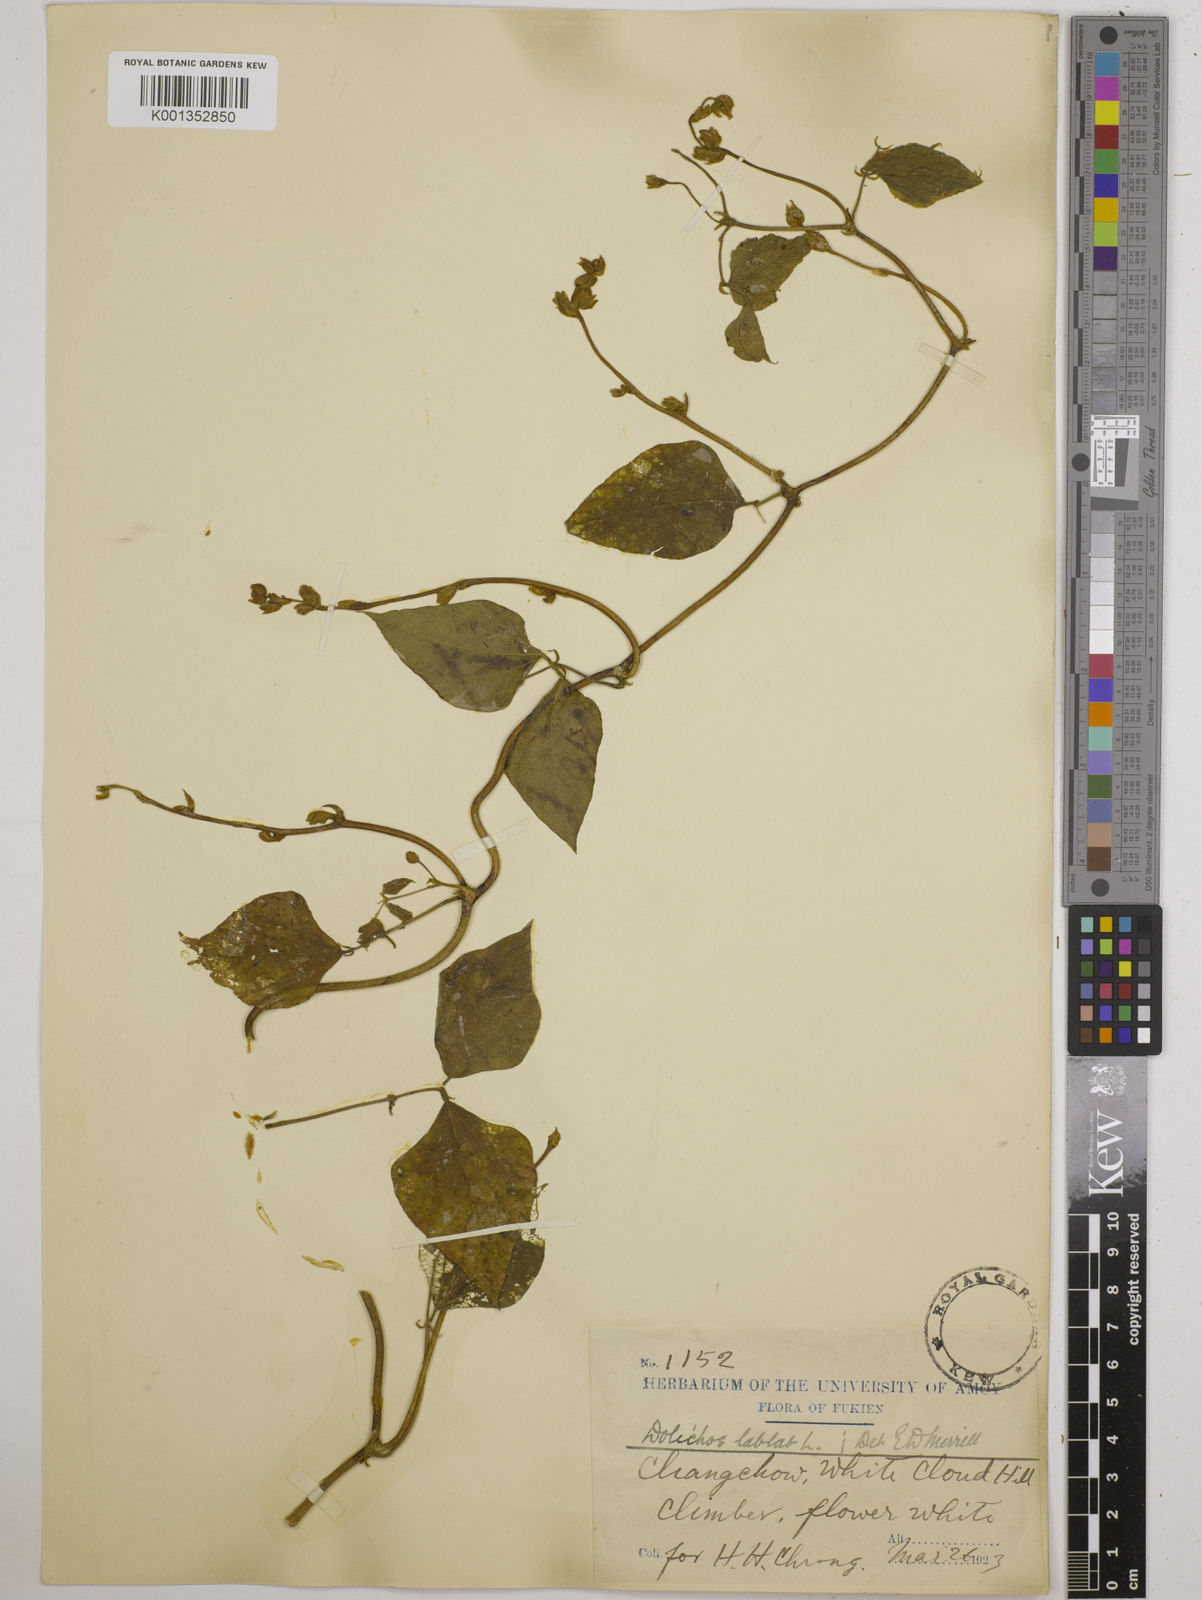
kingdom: Plantae
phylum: Tracheophyta
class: Magnoliopsida
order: Fabales
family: Fabaceae
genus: Lablab
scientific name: Lablab purpureus
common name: Lablab-bean
